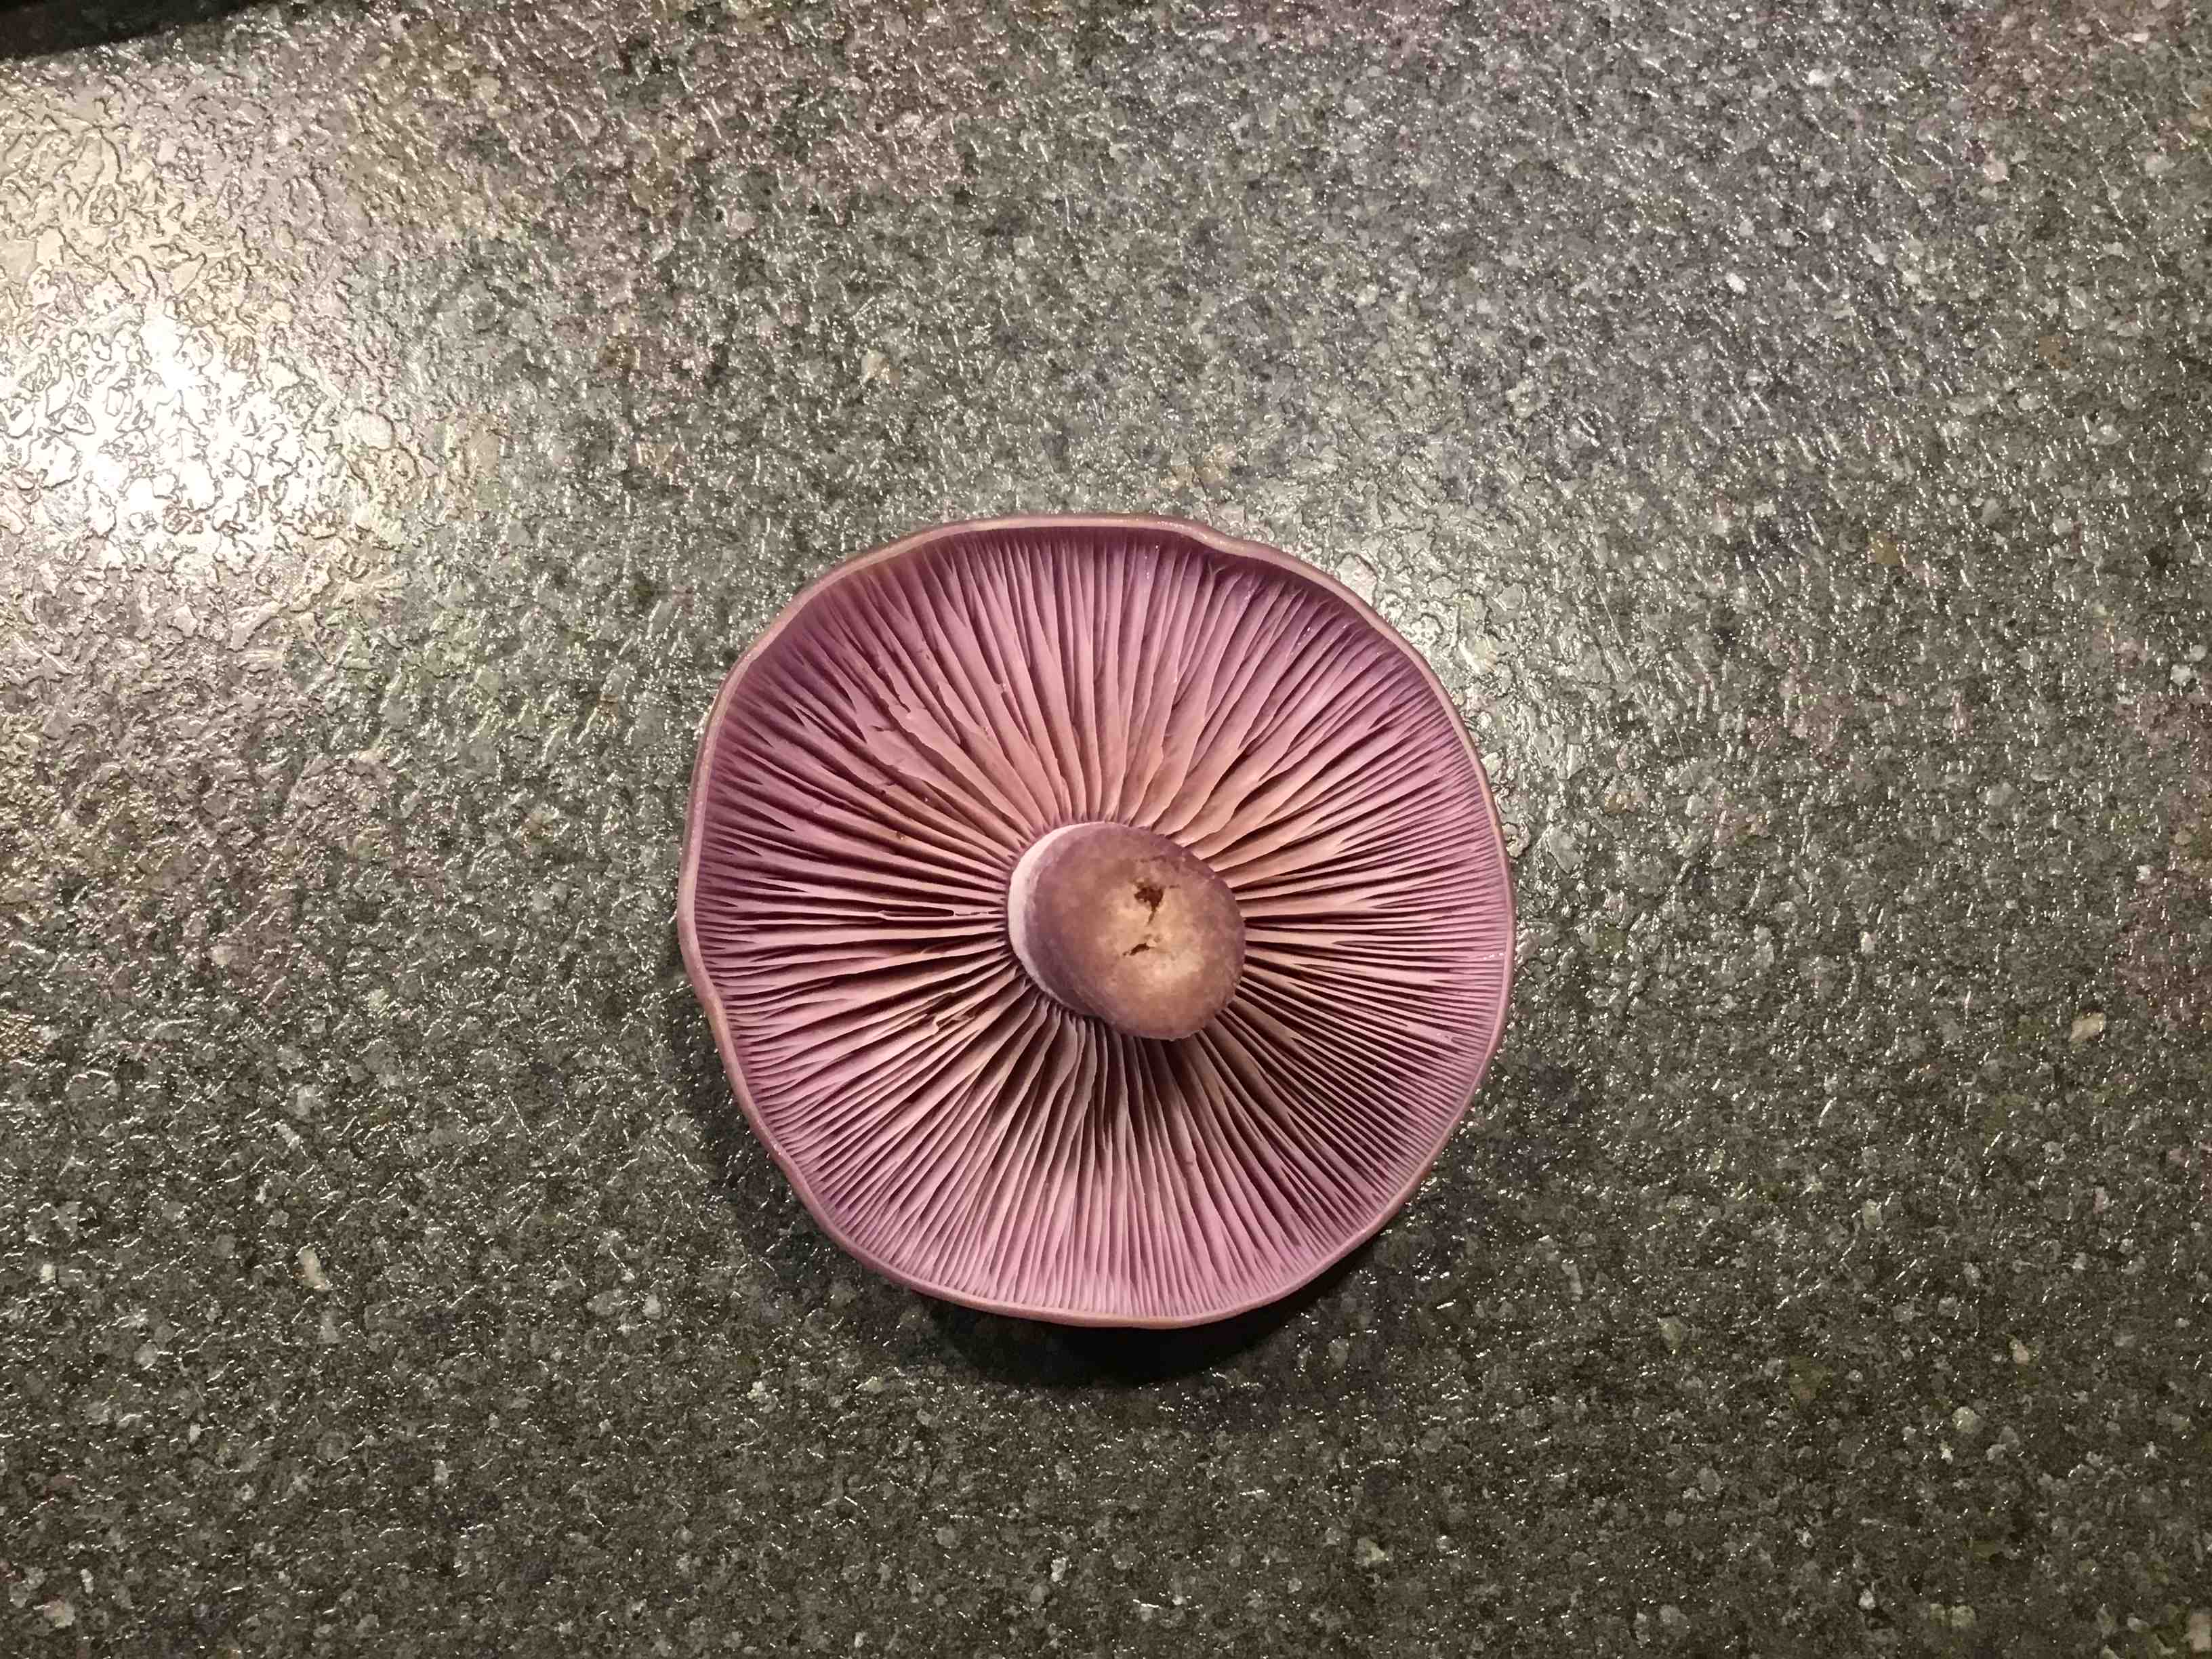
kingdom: Fungi
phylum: Basidiomycota
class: Agaricomycetes
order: Agaricales
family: Tricholomataceae
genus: Lepista
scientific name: Lepista nuda
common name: violet hekseringshat
